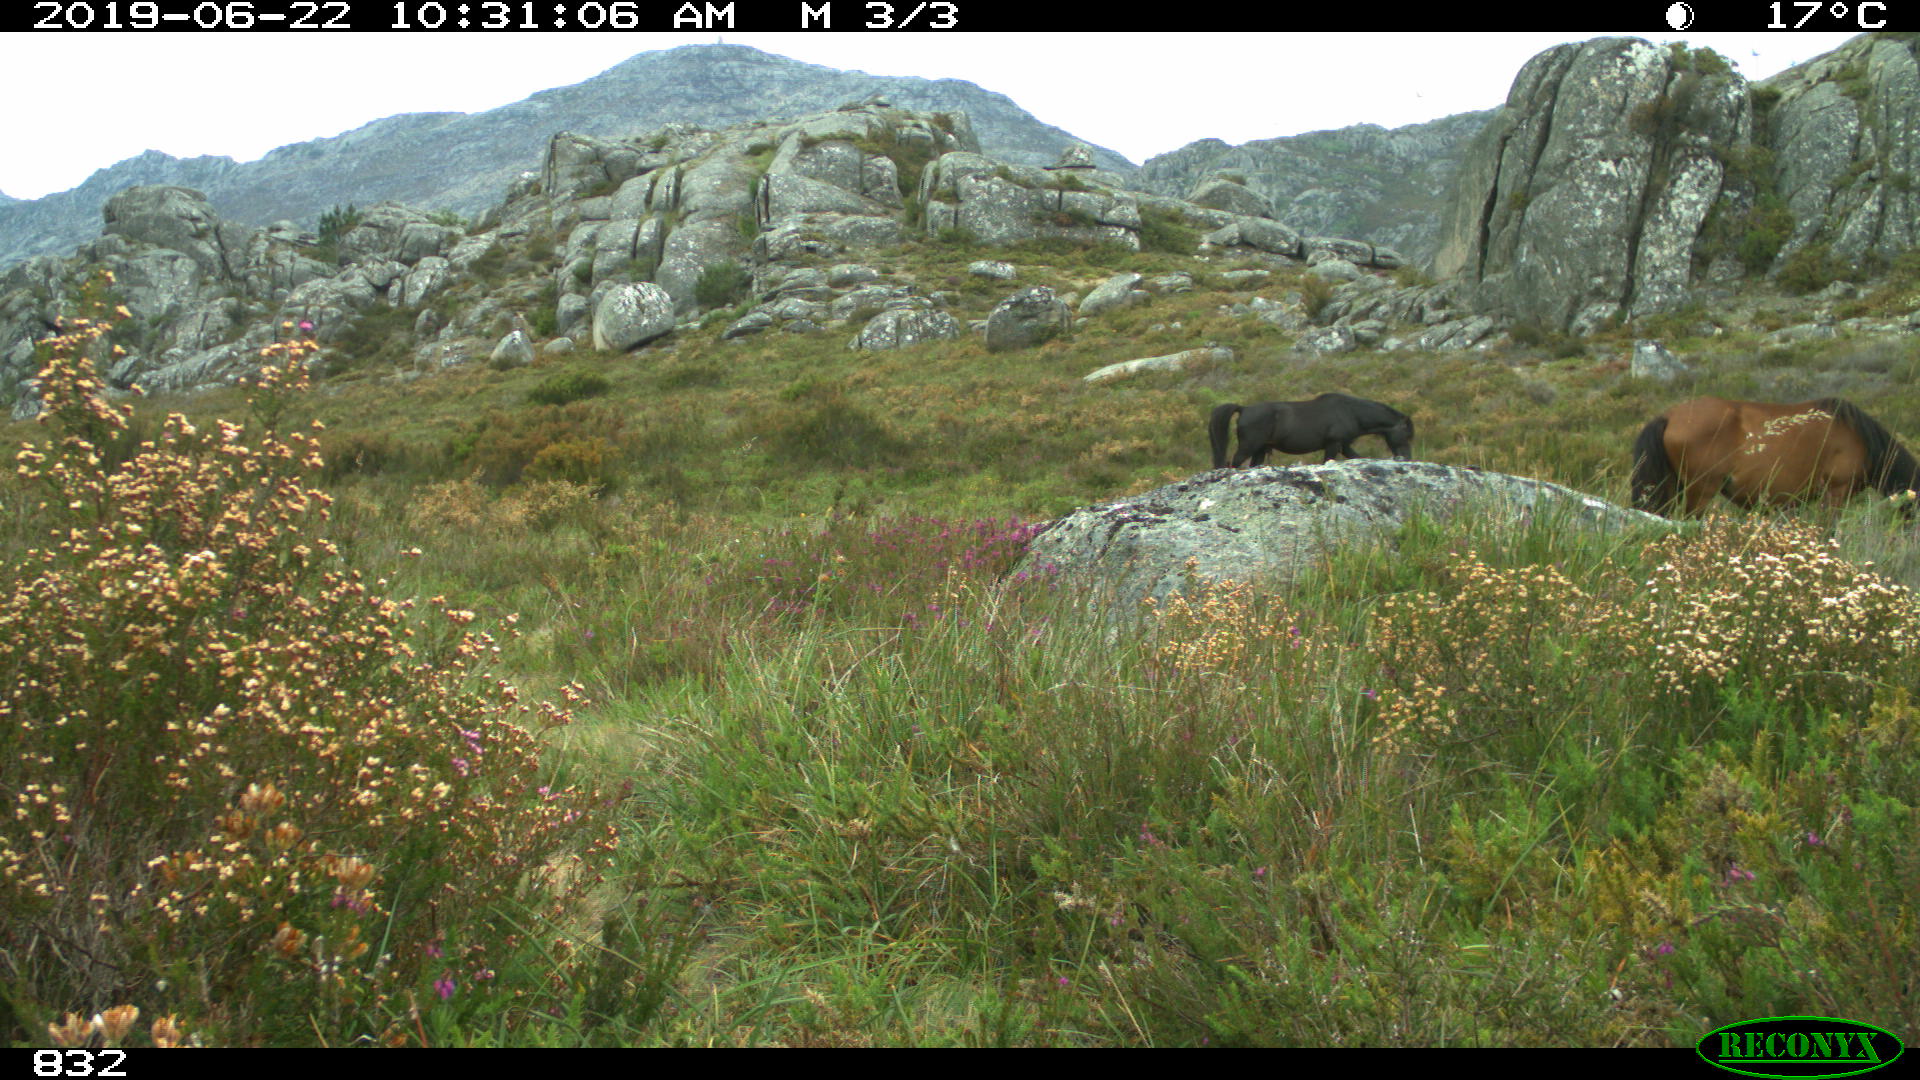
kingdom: Animalia
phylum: Chordata
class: Mammalia
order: Perissodactyla
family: Equidae
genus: Equus
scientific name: Equus caballus
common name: Horse
